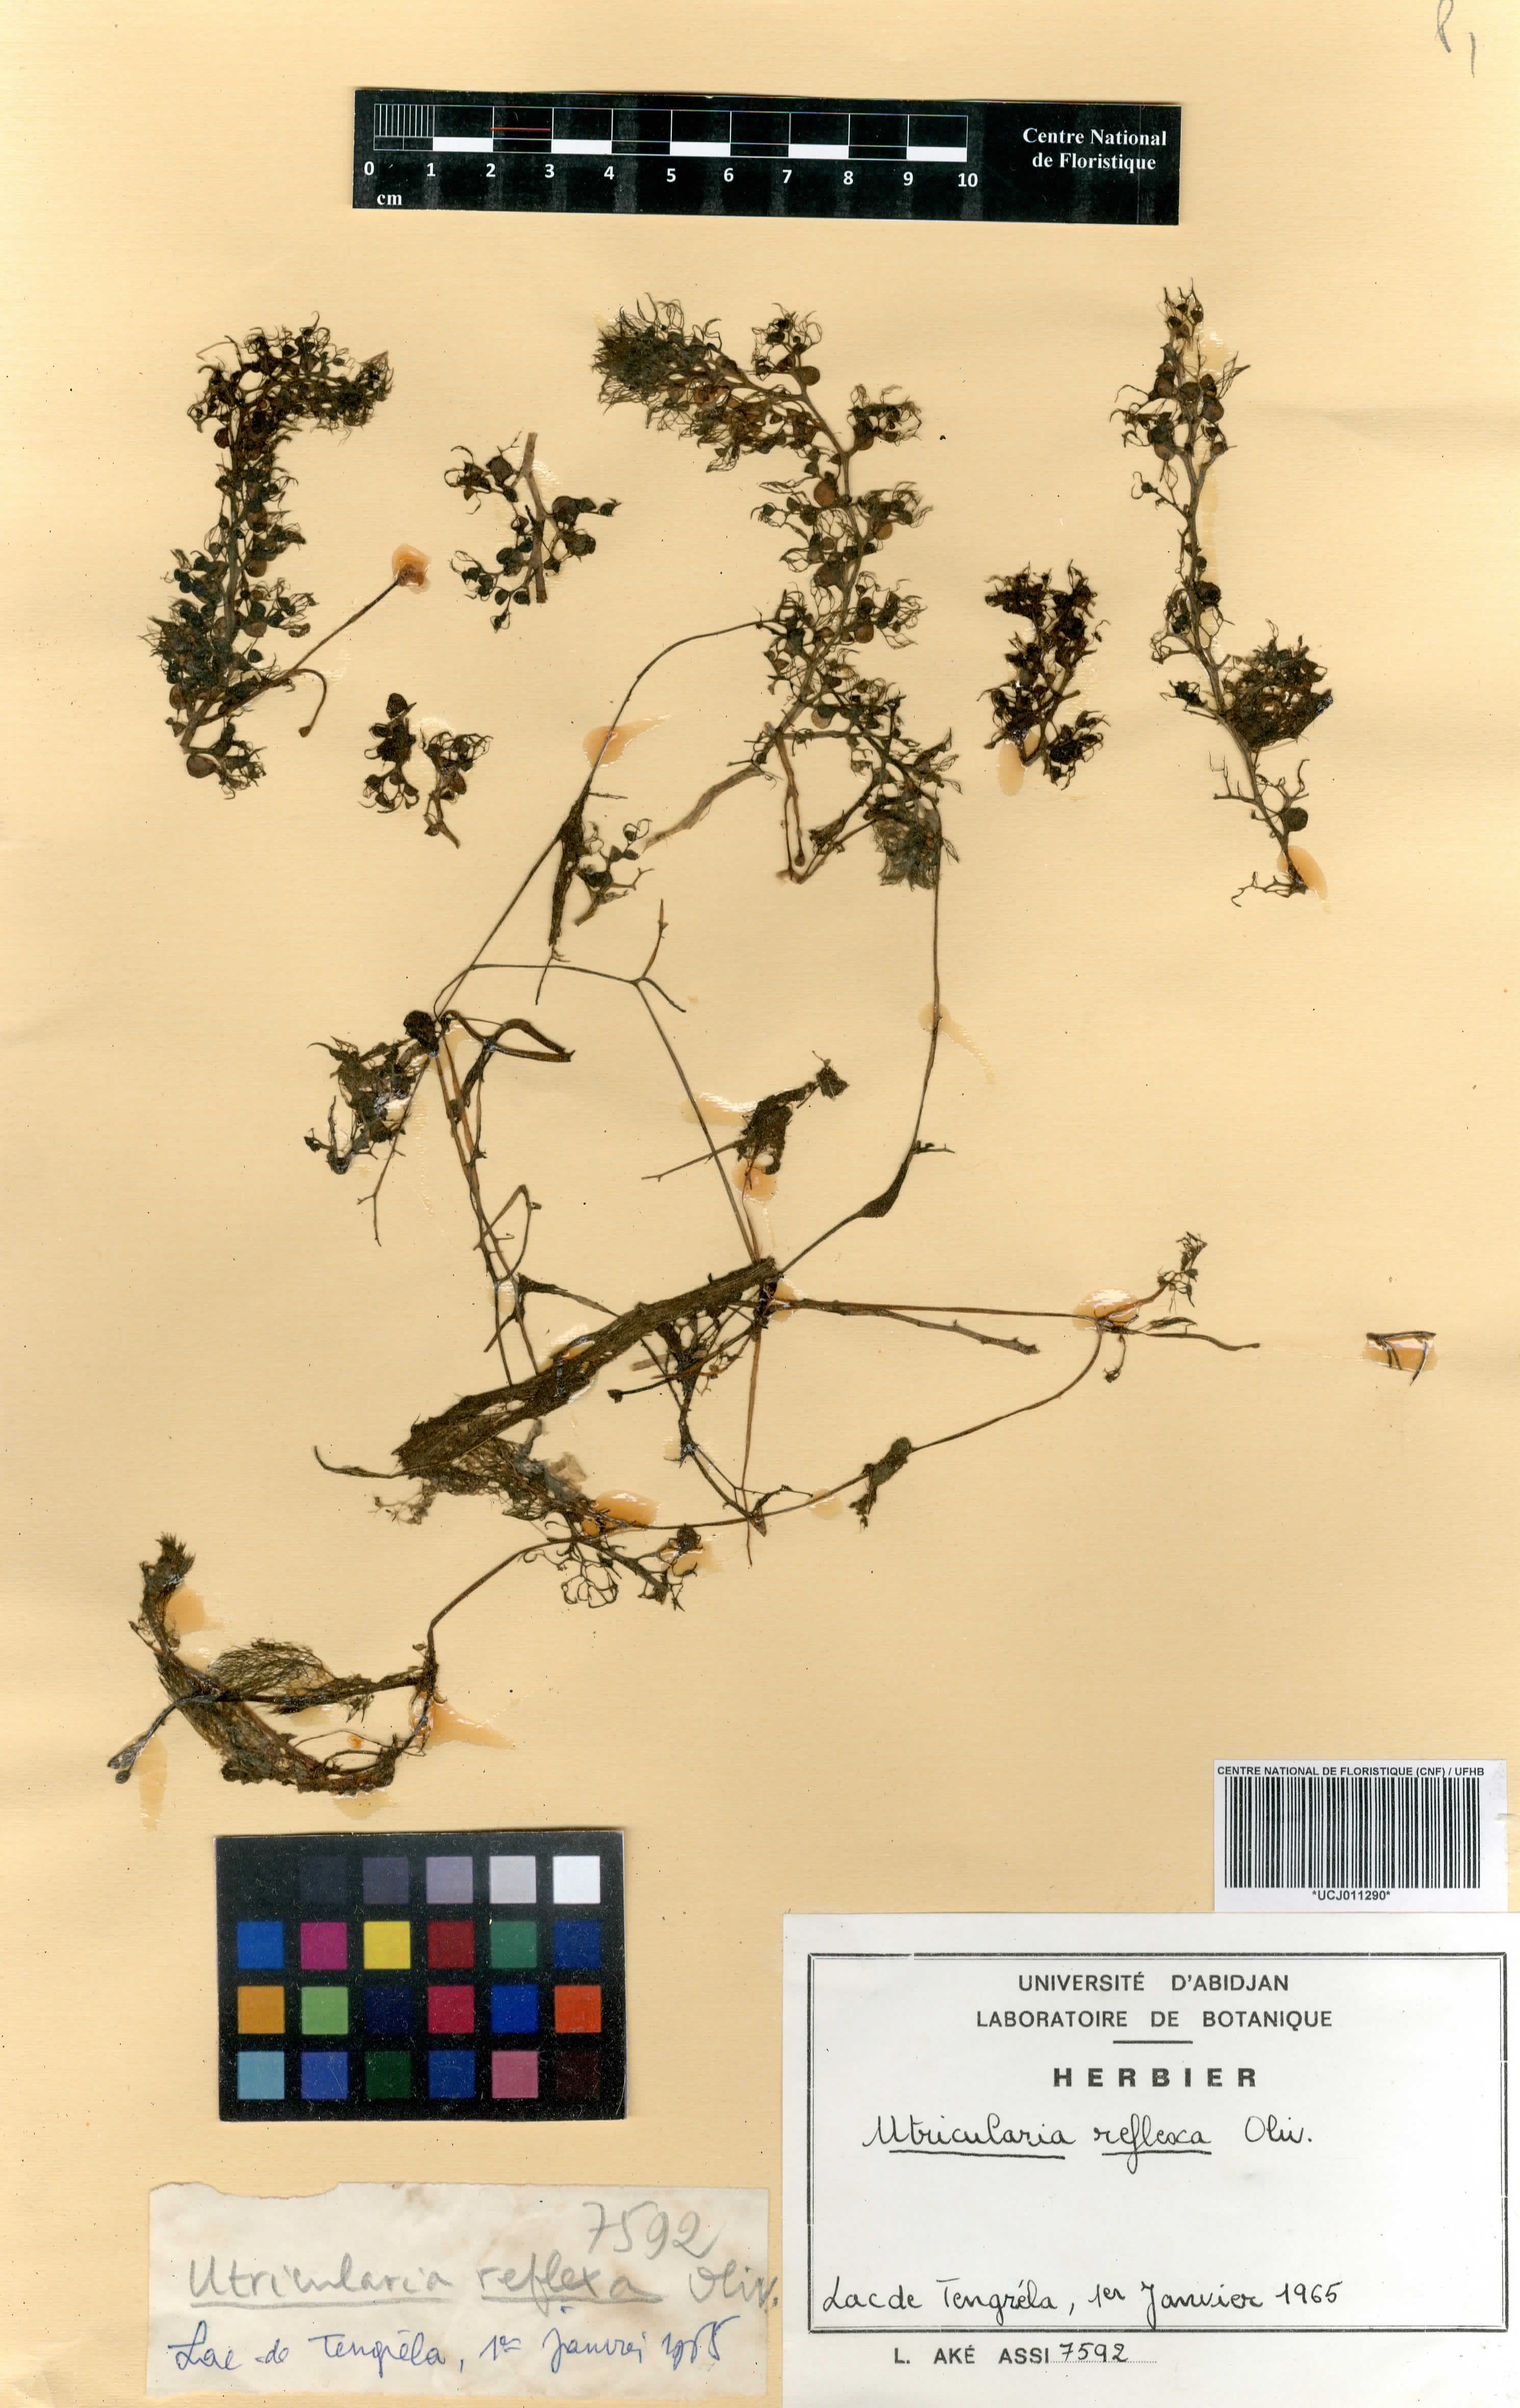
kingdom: Plantae
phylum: Tracheophyta
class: Magnoliopsida
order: Lamiales
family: Lentibulariaceae
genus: Utricularia
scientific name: Utricularia reflexa
